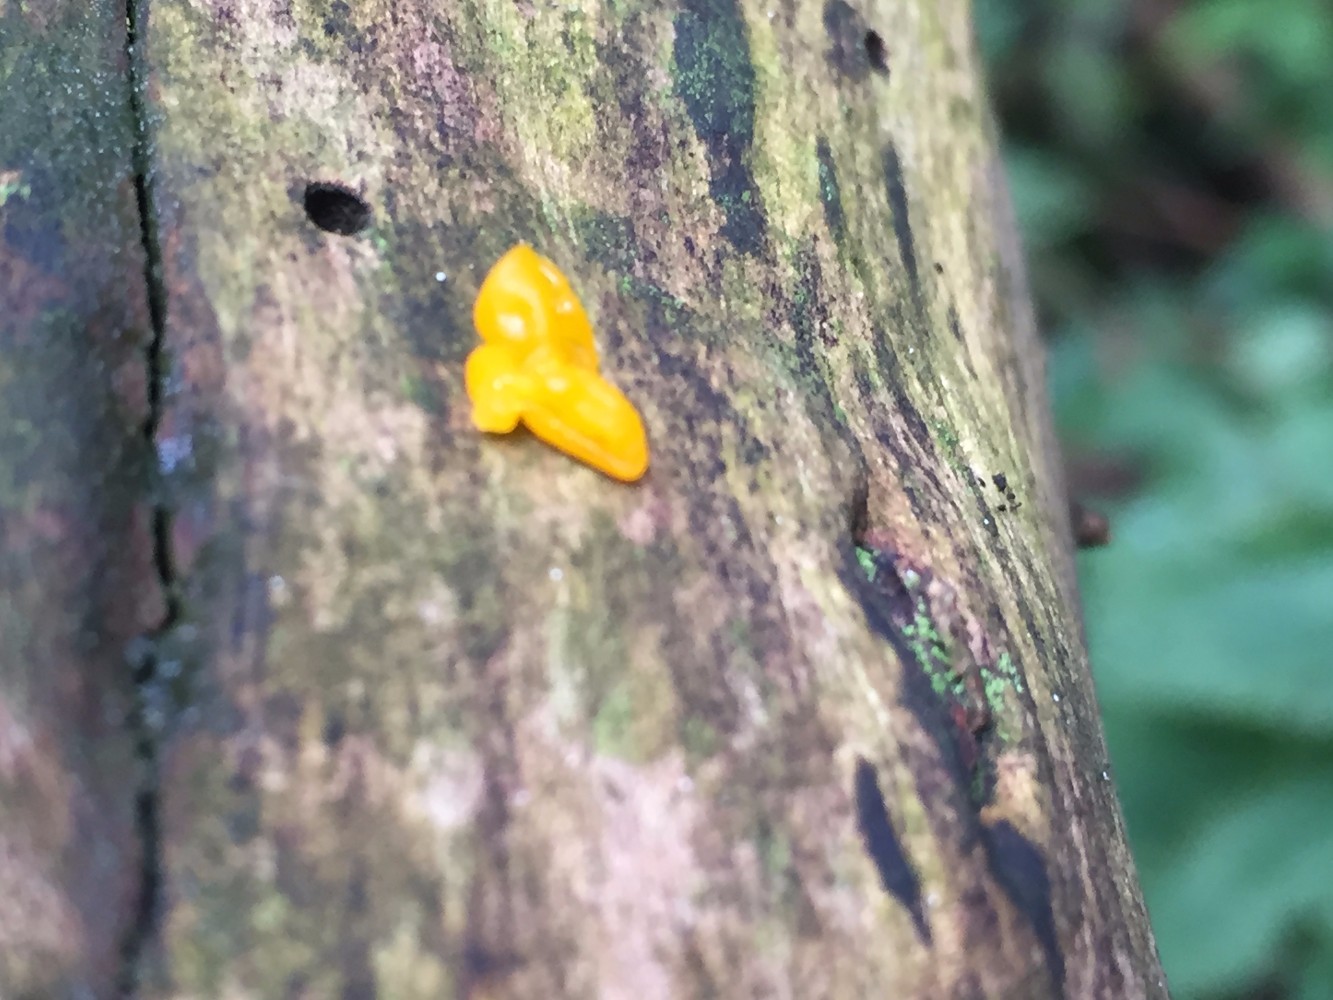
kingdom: Fungi
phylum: Basidiomycota
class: Tremellomycetes
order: Tremellales
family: Tremellaceae
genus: Tremella
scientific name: Tremella mesenterica
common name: gul bævresvamp
